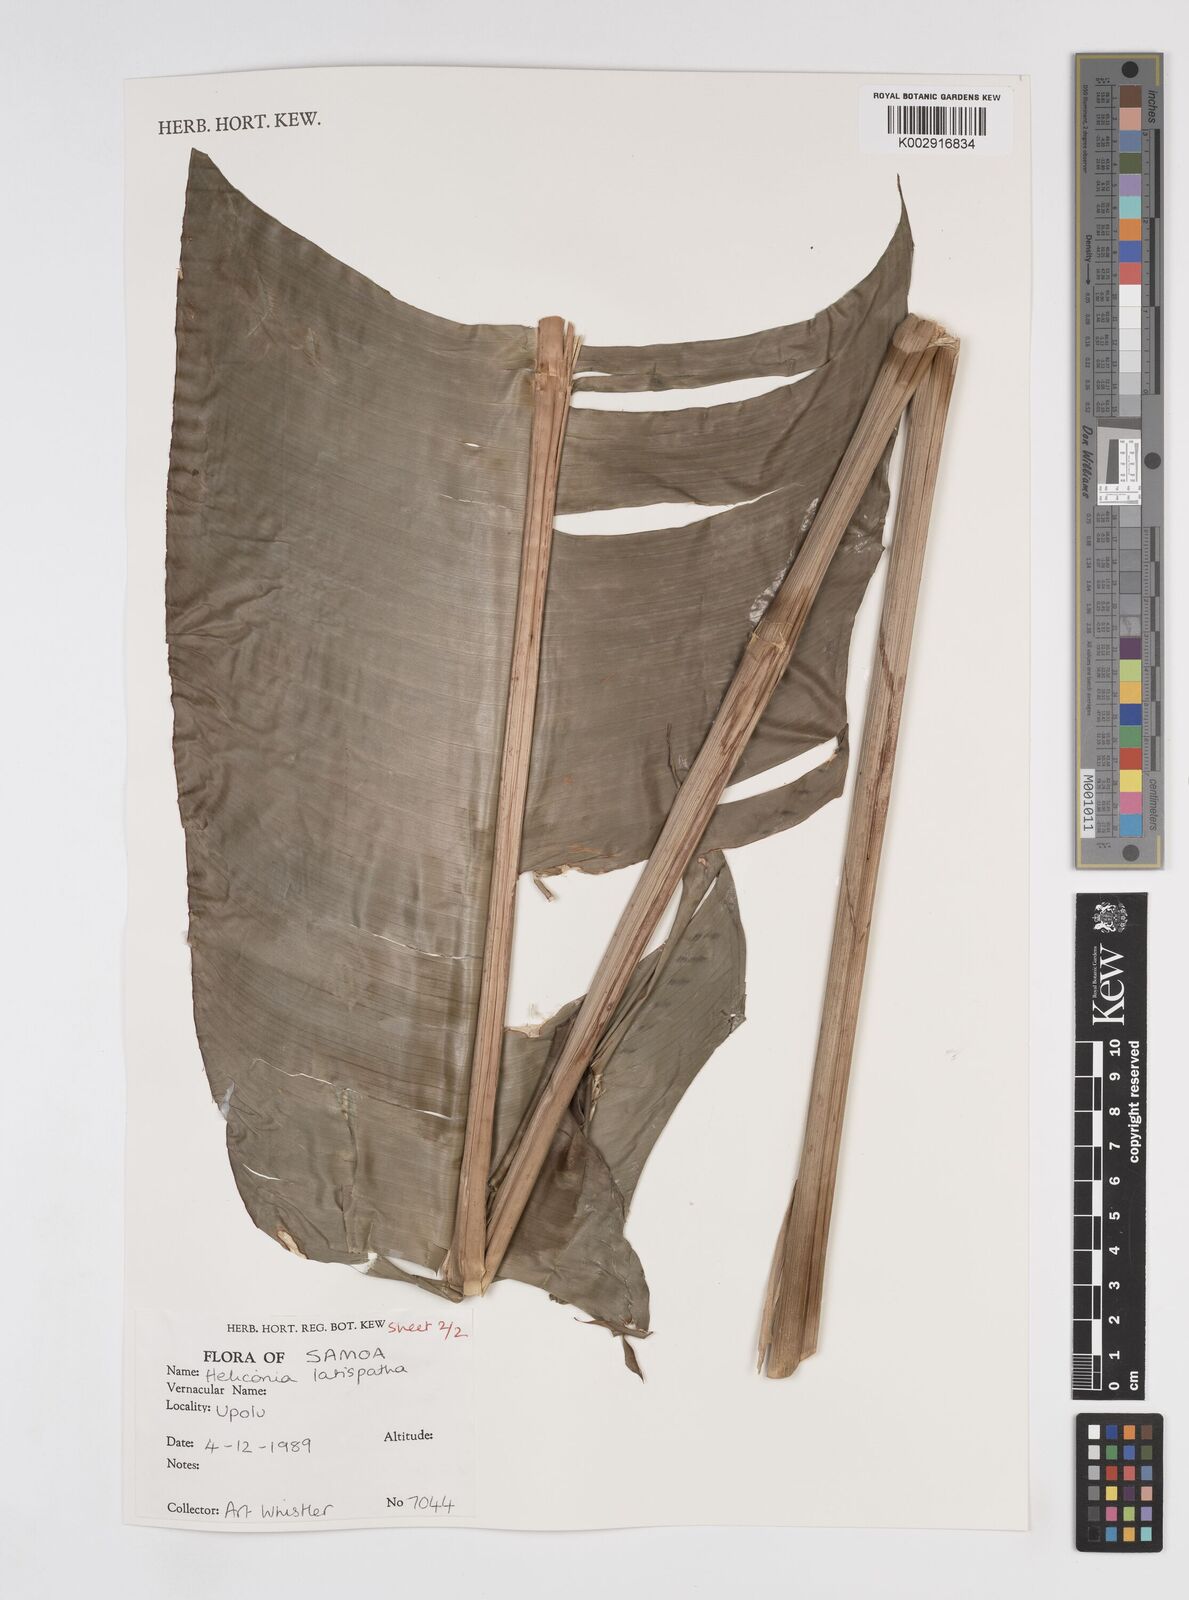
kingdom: Plantae
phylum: Tracheophyta
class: Liliopsida
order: Zingiberales
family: Heliconiaceae
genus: Heliconia
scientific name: Heliconia latispatha
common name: Expanded lobsterclaw
